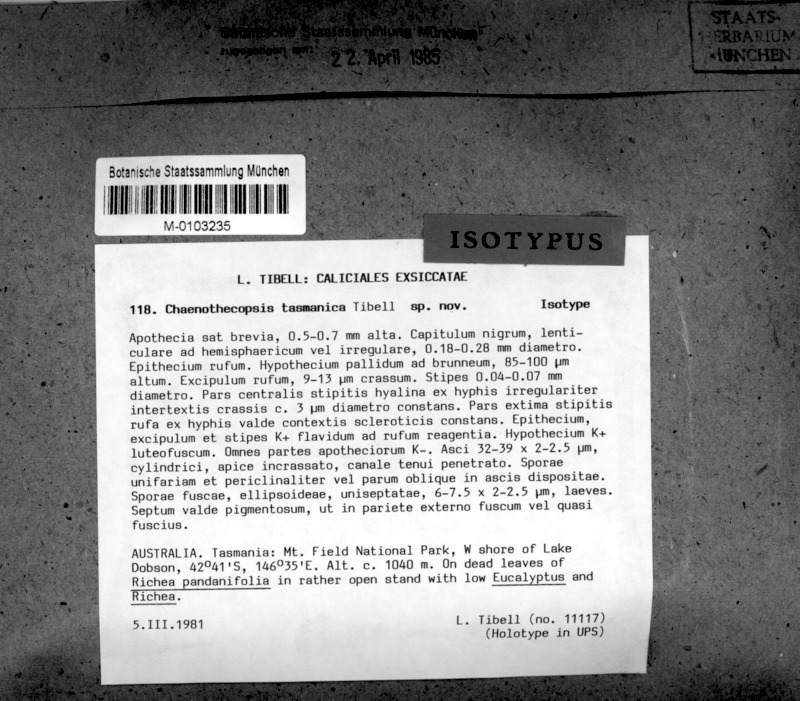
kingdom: Fungi
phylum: Ascomycota
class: Eurotiomycetes
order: Mycocaliciales
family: Mycocaliciaceae
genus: Chaenothecopsis
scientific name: Chaenothecopsis tasmanica
